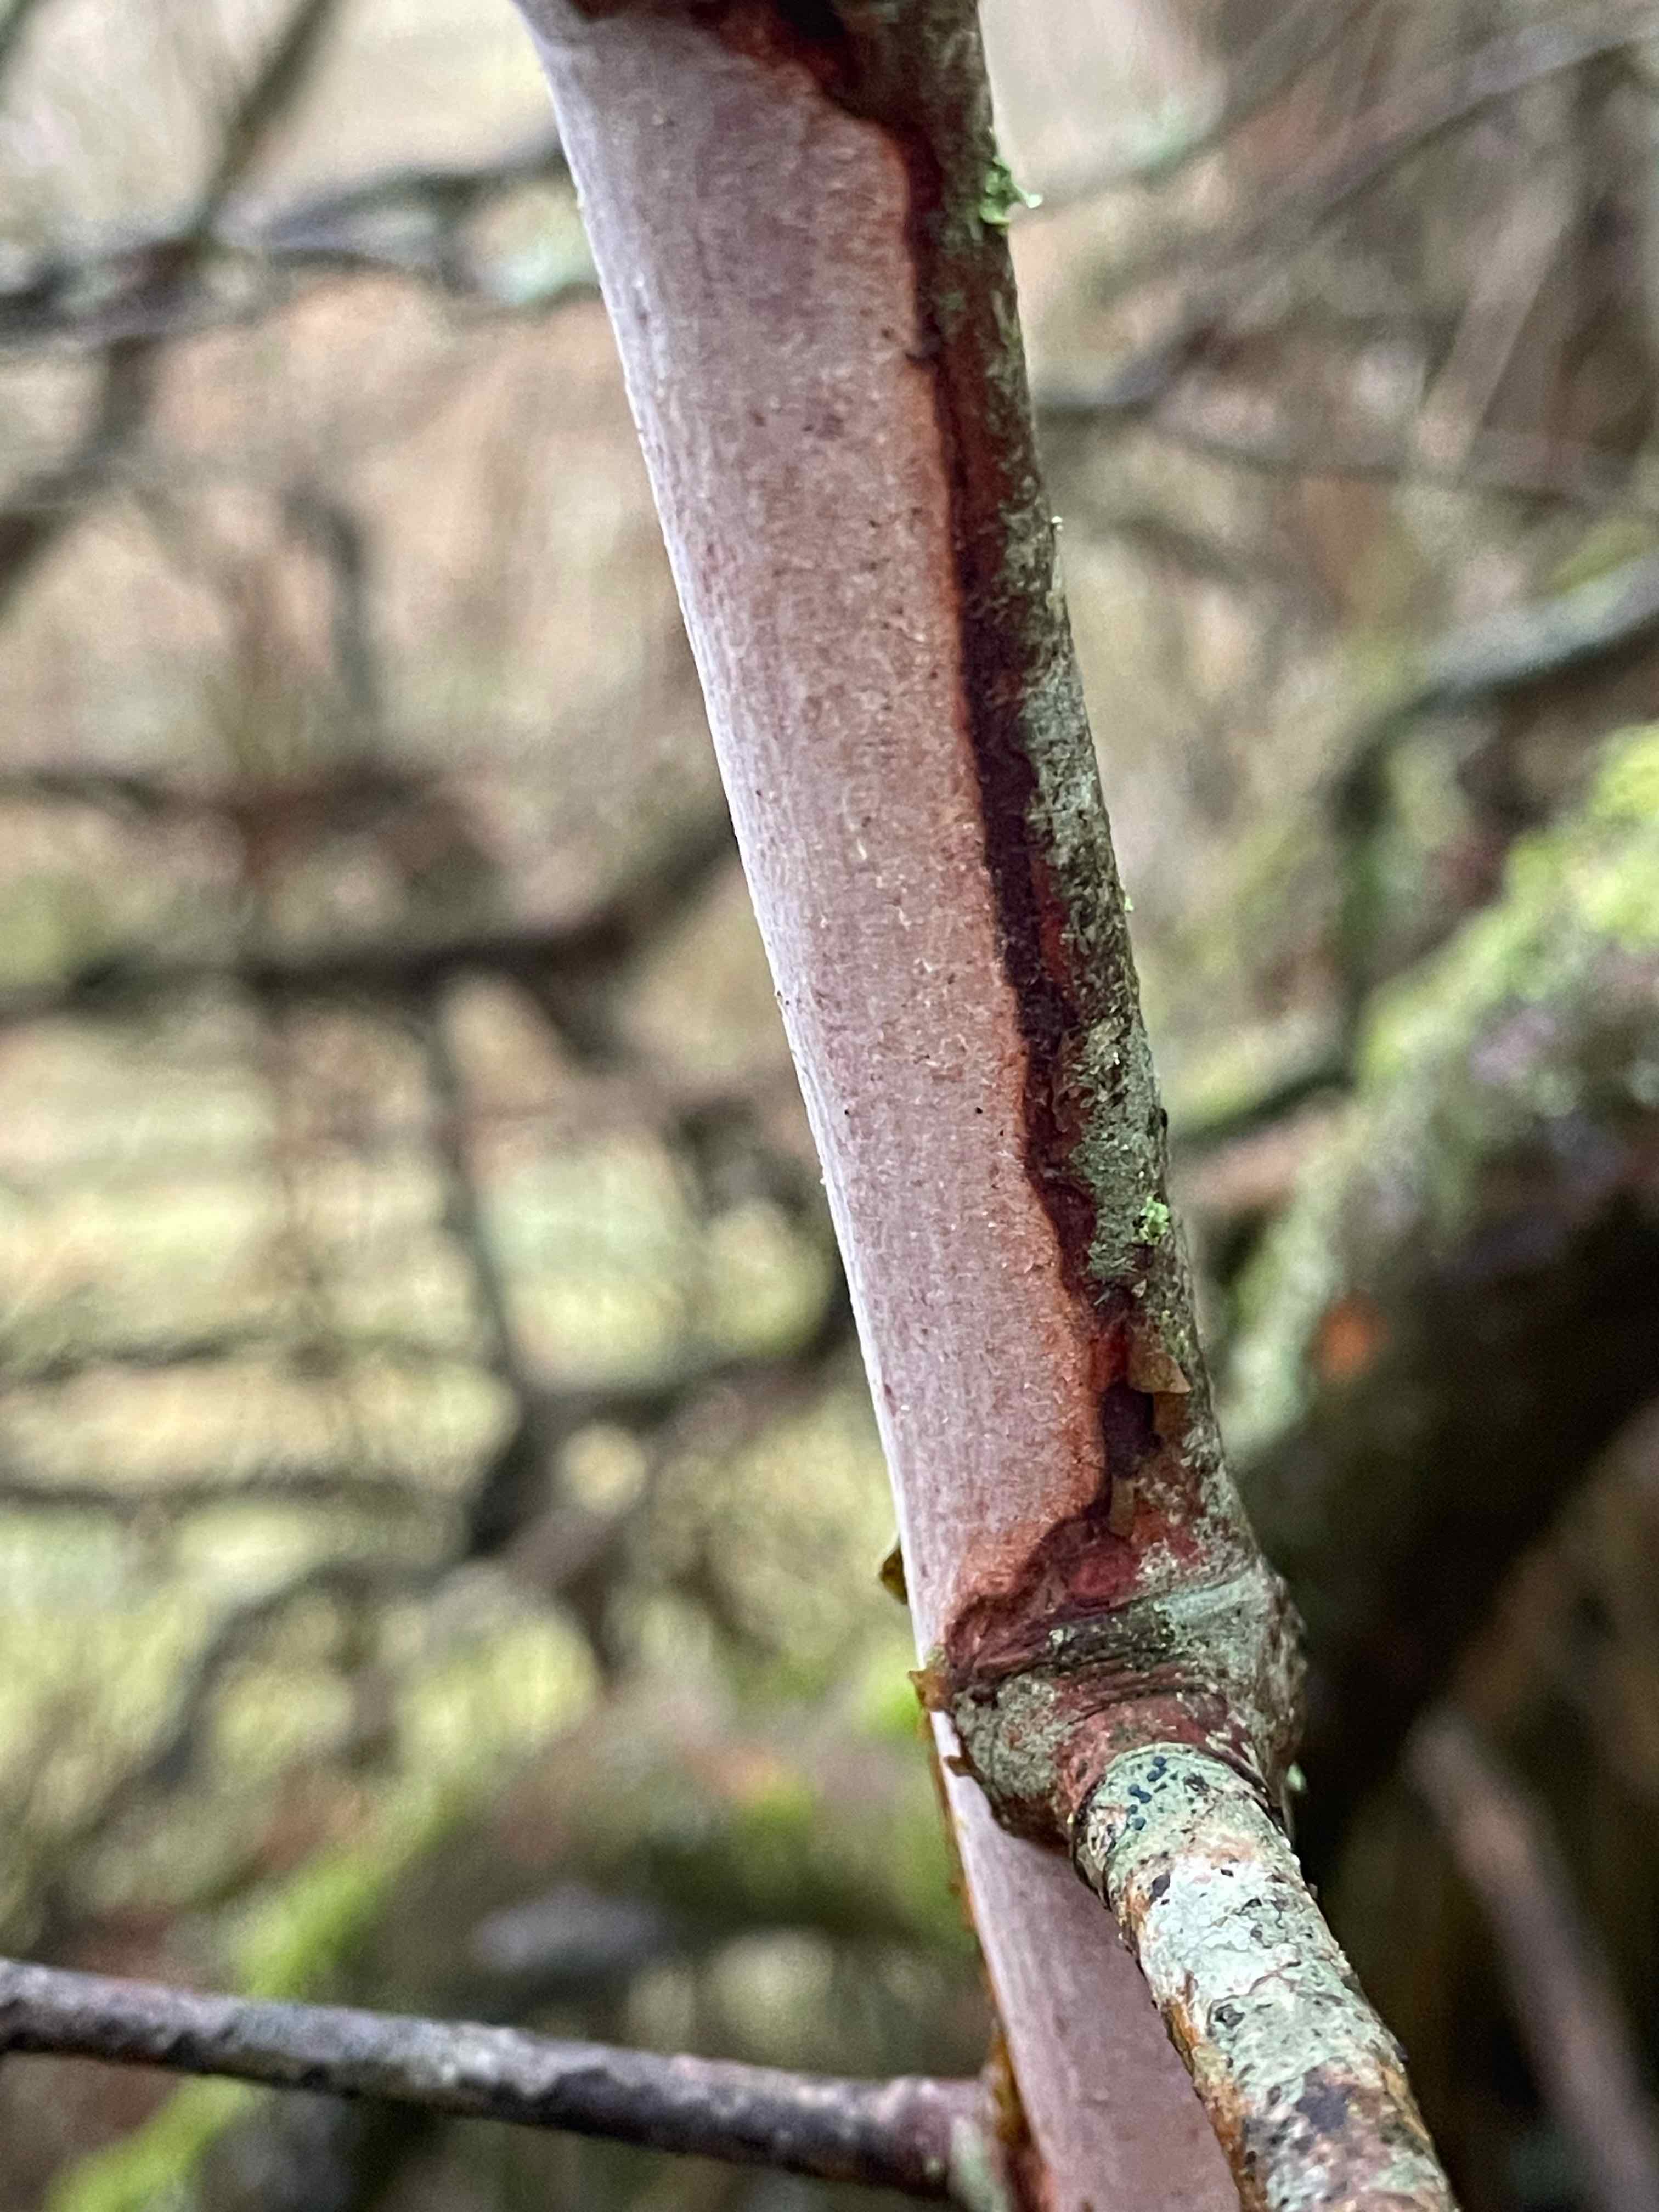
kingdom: Fungi
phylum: Basidiomycota
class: Agaricomycetes
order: Corticiales
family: Vuilleminiaceae
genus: Vuilleminia
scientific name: Vuilleminia cystidiata
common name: tjørne-barksprænger
